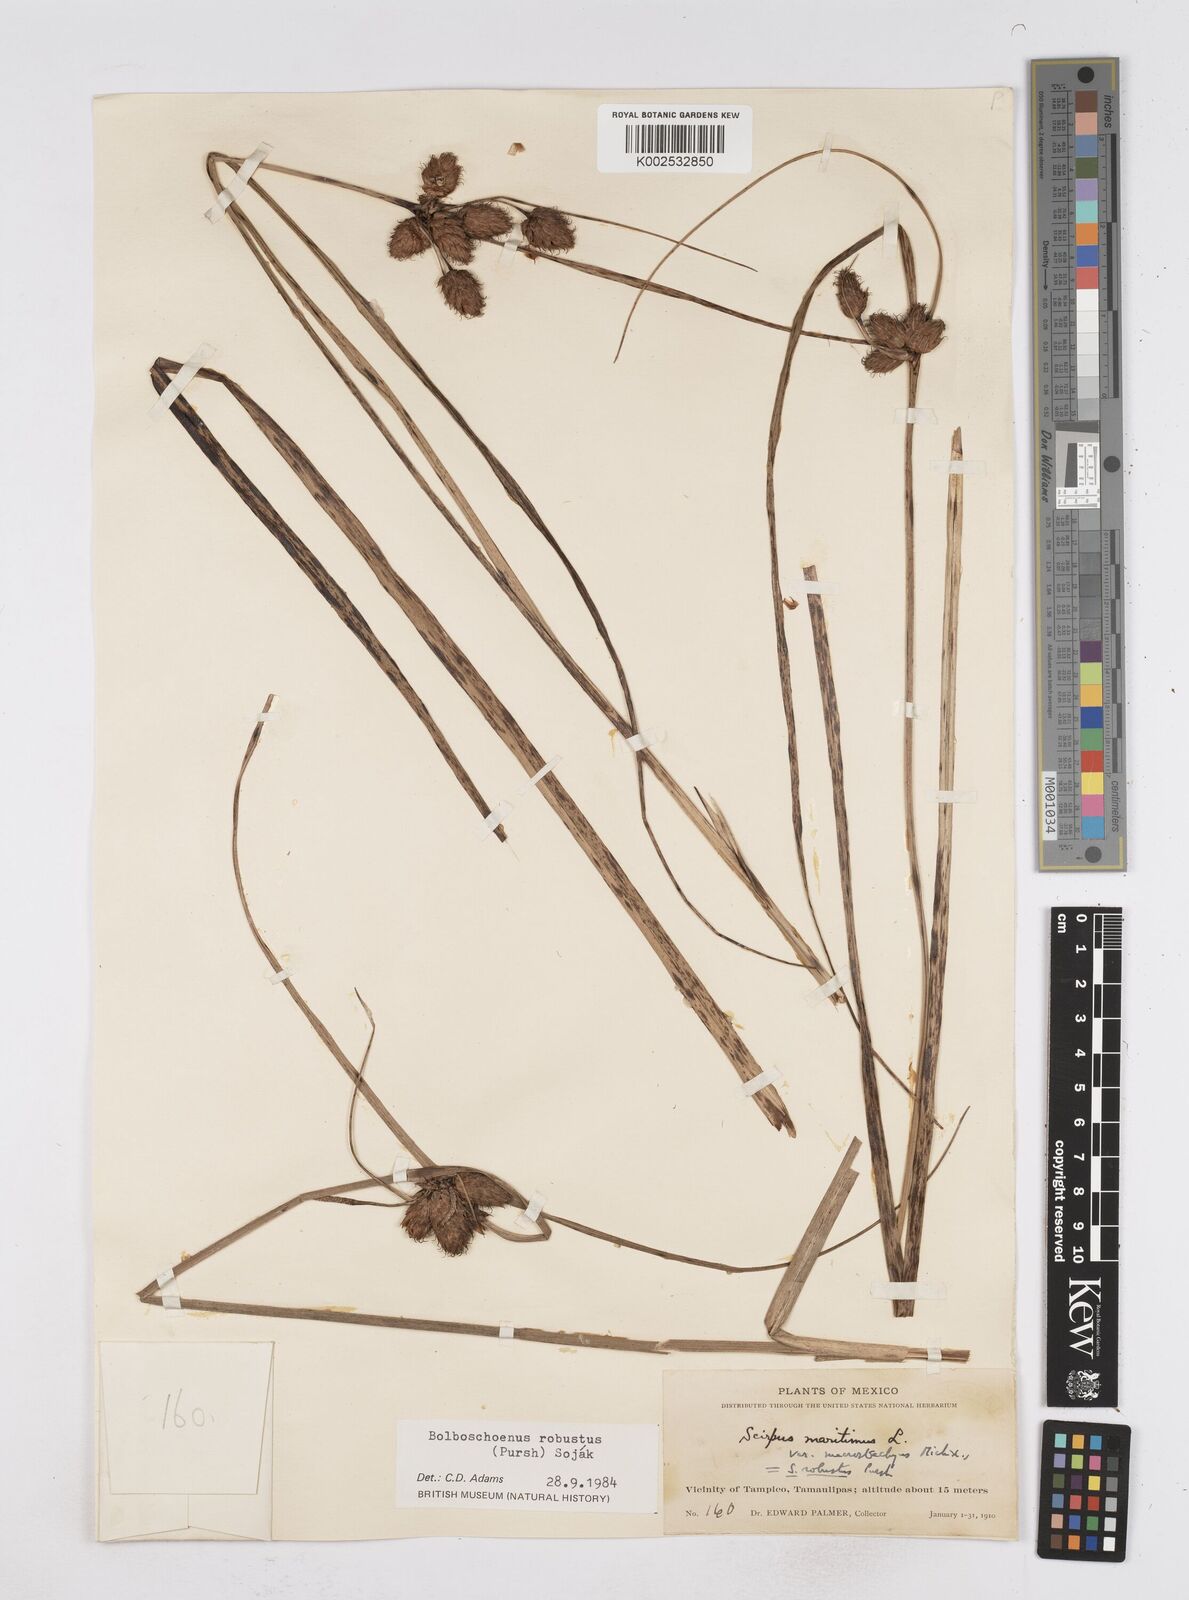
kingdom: Plantae
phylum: Tracheophyta
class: Liliopsida
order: Poales
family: Cyperaceae
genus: Bolboschoenus
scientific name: Bolboschoenus robustus
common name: Seacoast bulrush
